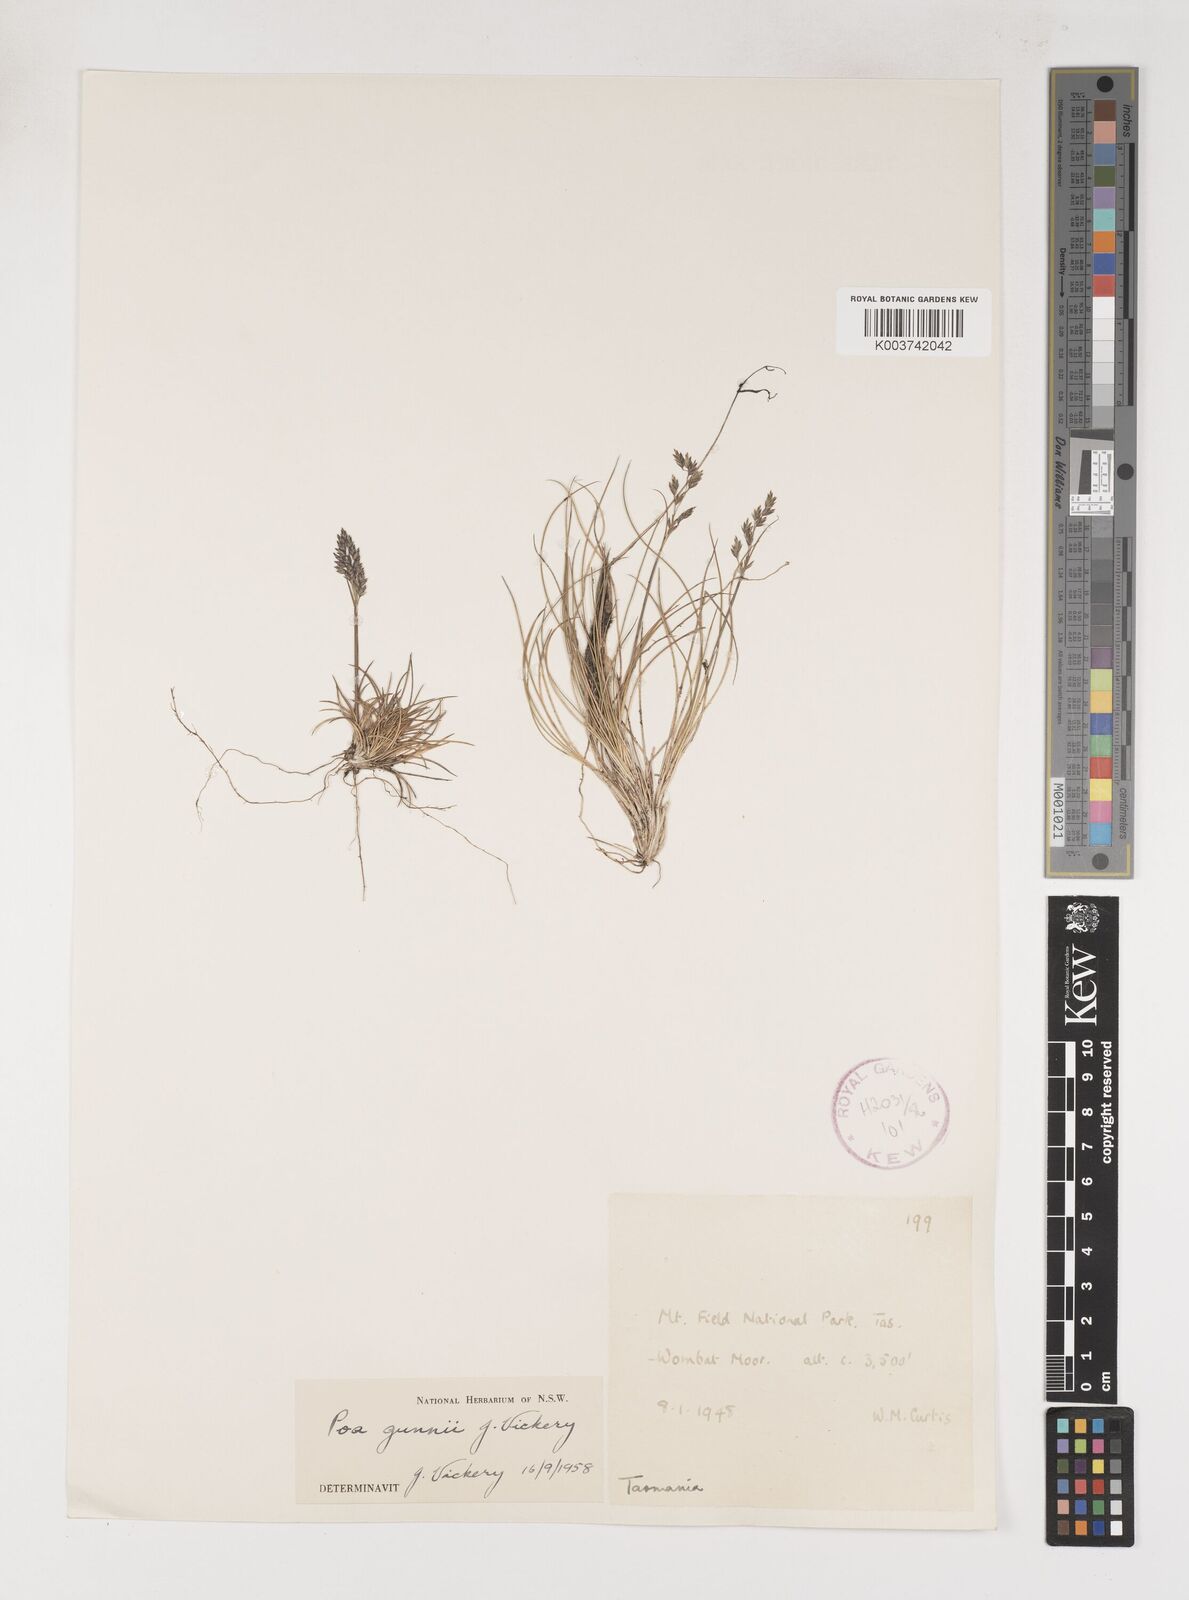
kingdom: Plantae
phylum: Tracheophyta
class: Liliopsida
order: Poales
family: Poaceae
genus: Poa
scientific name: Poa gunnii
